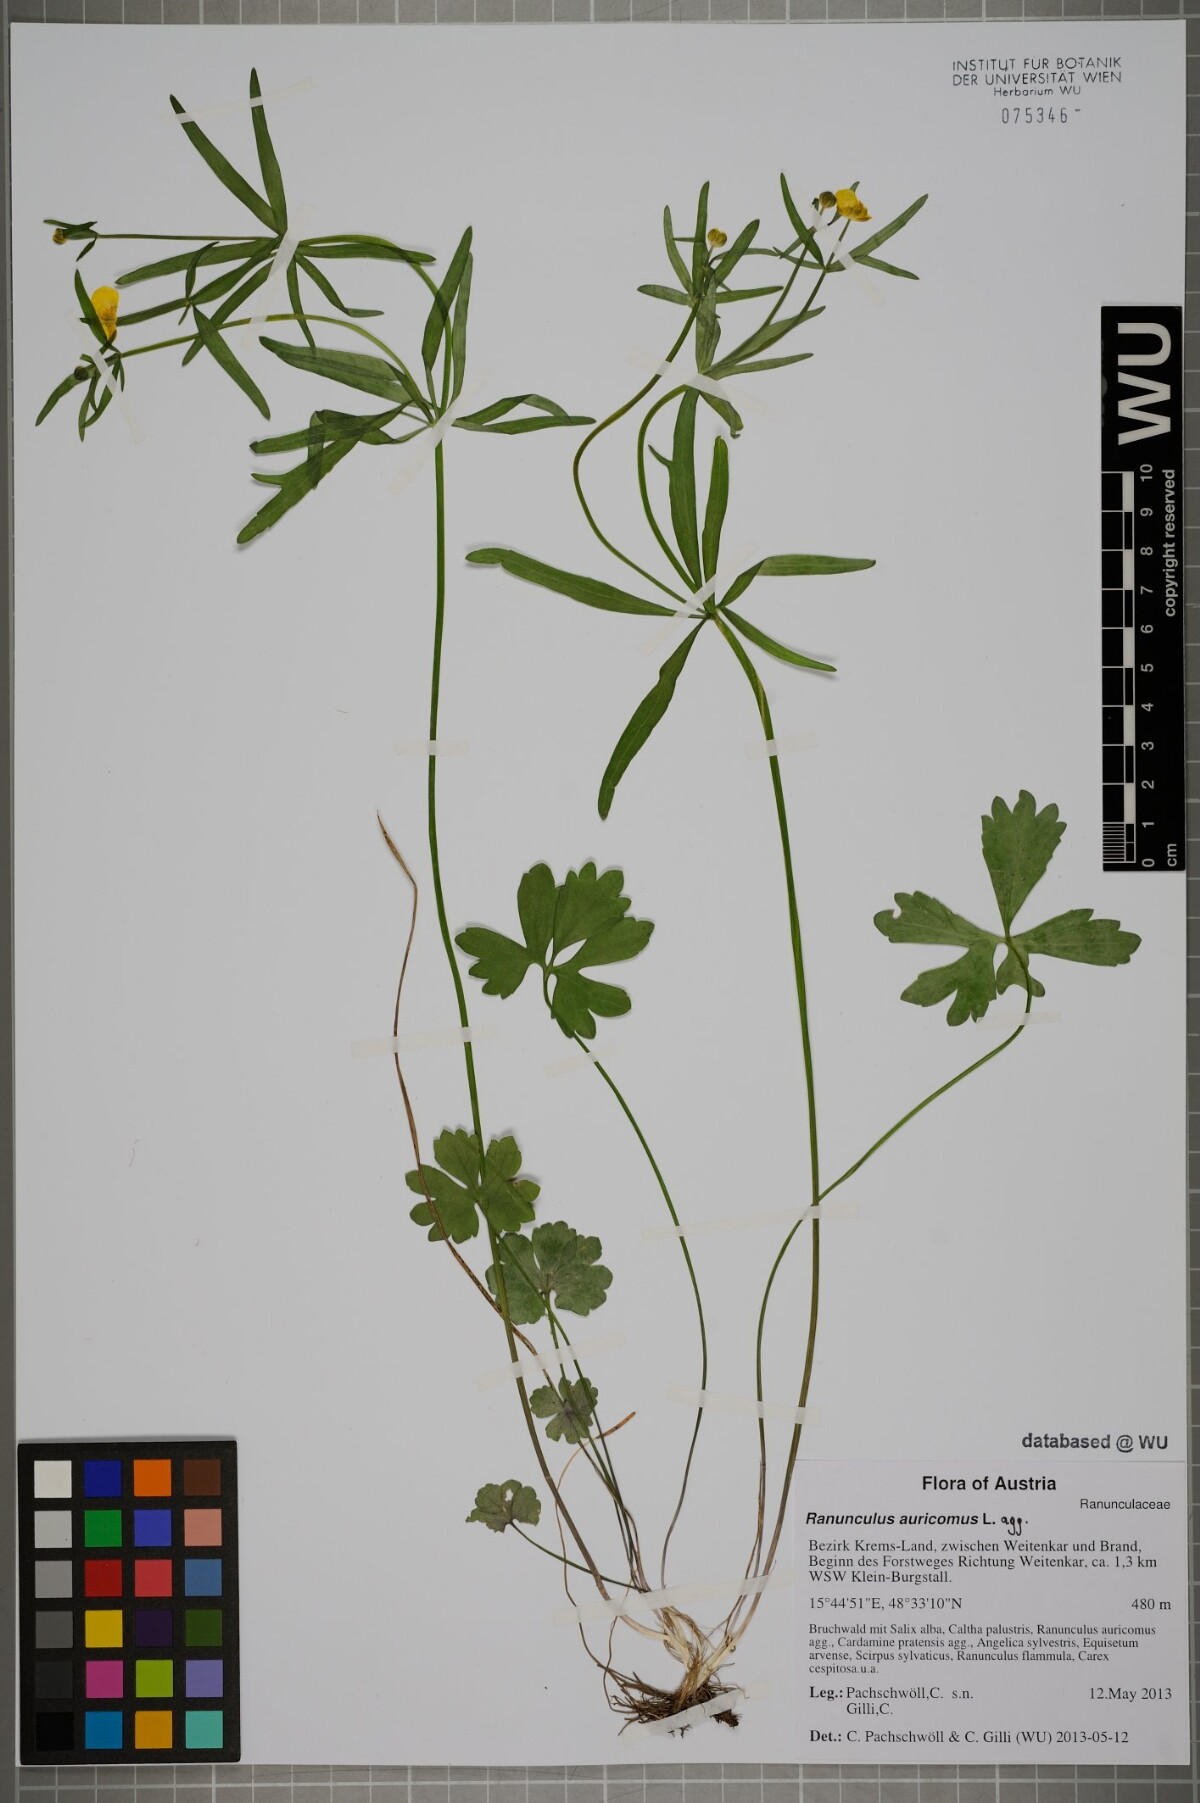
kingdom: Plantae
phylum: Tracheophyta
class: Magnoliopsida
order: Ranunculales
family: Ranunculaceae
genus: Ranunculus
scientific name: Ranunculus auricomus
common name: Goldilocks buttercup
